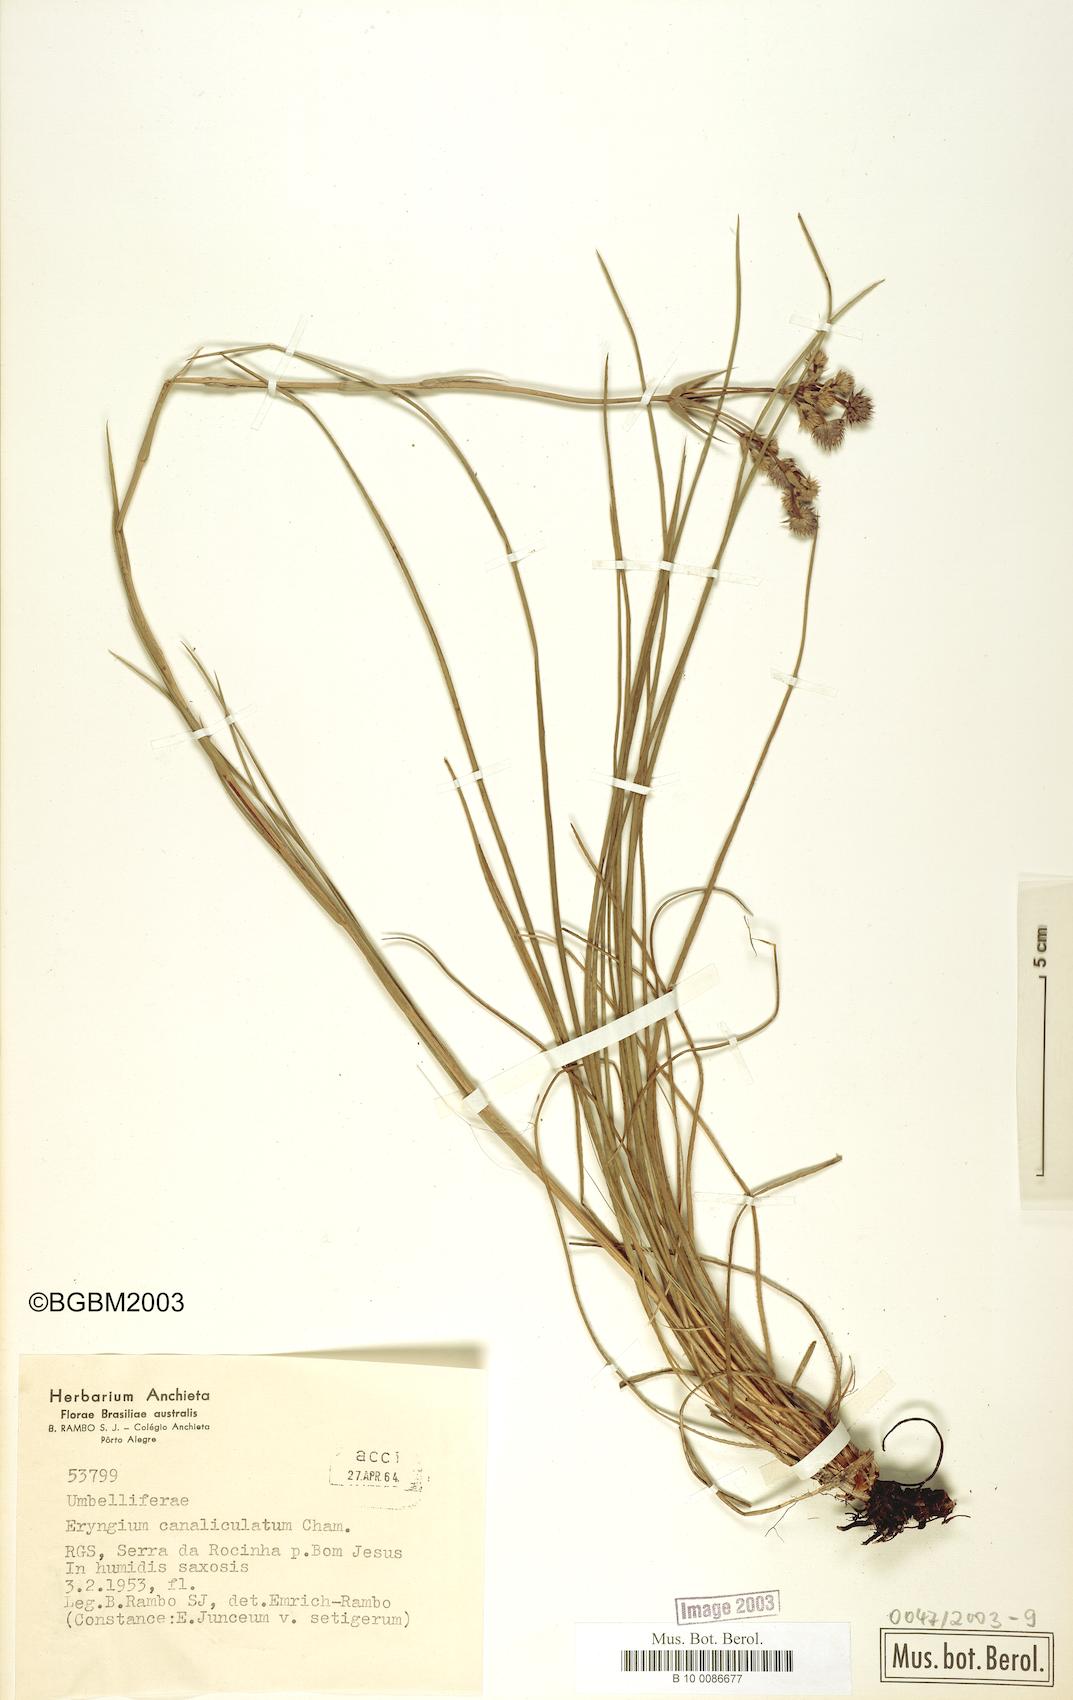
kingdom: Plantae
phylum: Tracheophyta
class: Magnoliopsida
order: Apiales
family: Apiaceae
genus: Eryngium
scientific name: Eryngium canaliculatum
